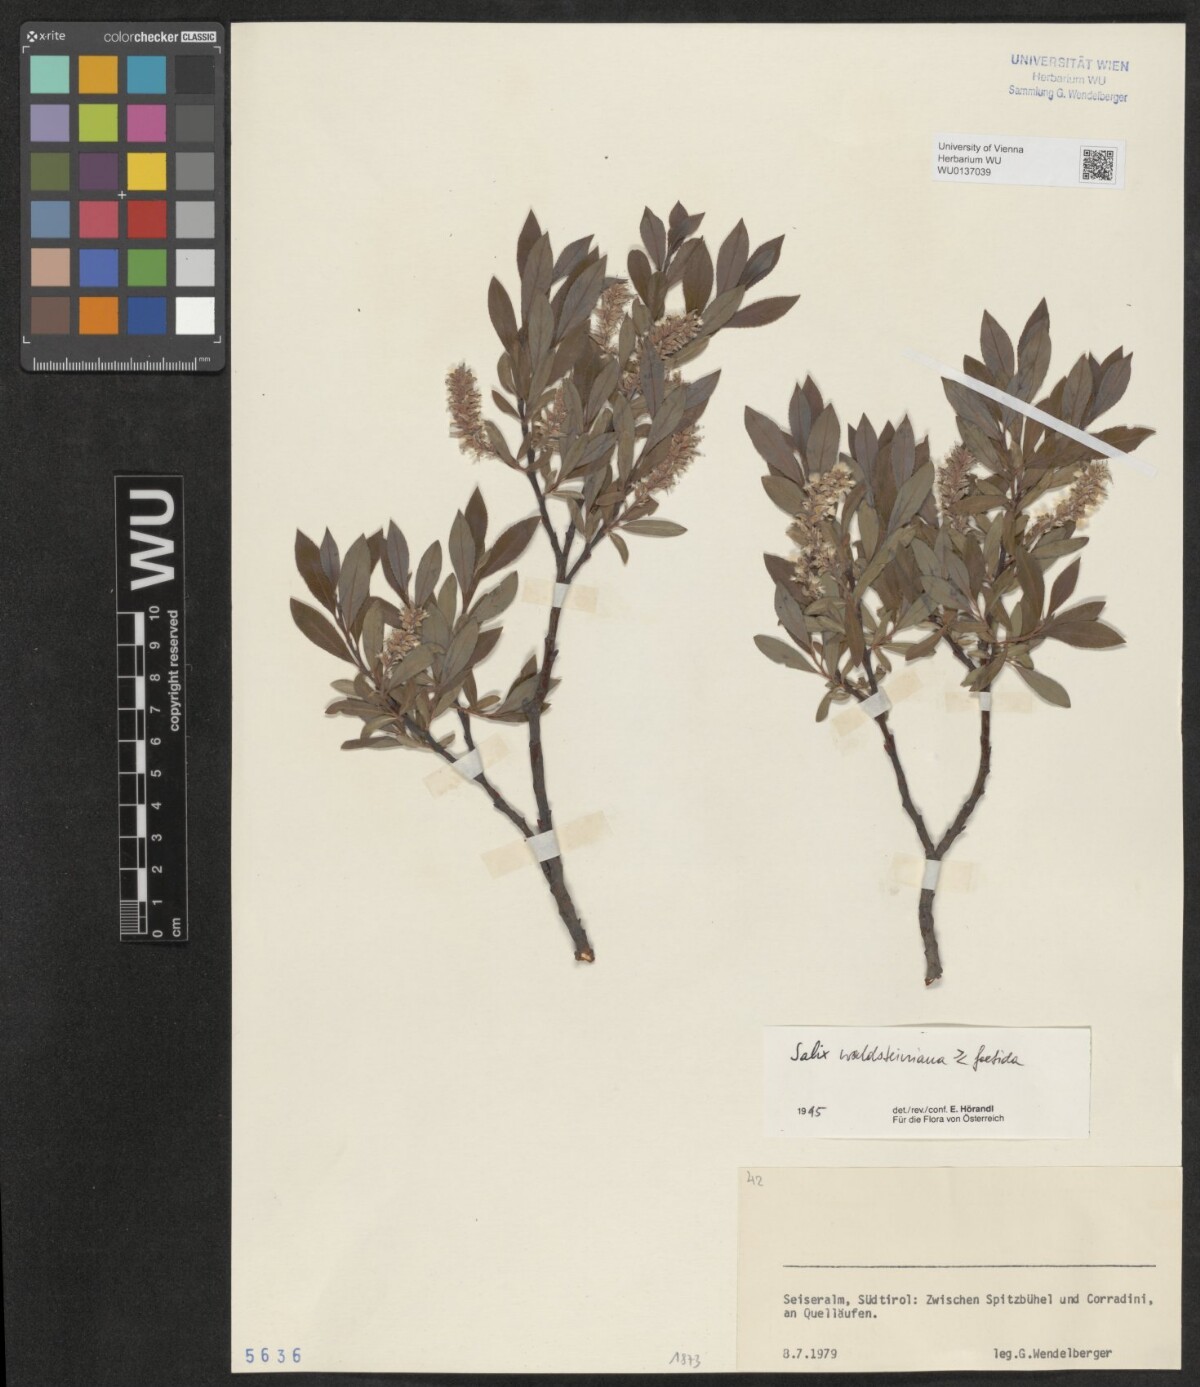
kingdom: Plantae
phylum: Tracheophyta
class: Magnoliopsida
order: Malpighiales
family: Salicaceae
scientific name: Salicaceae
